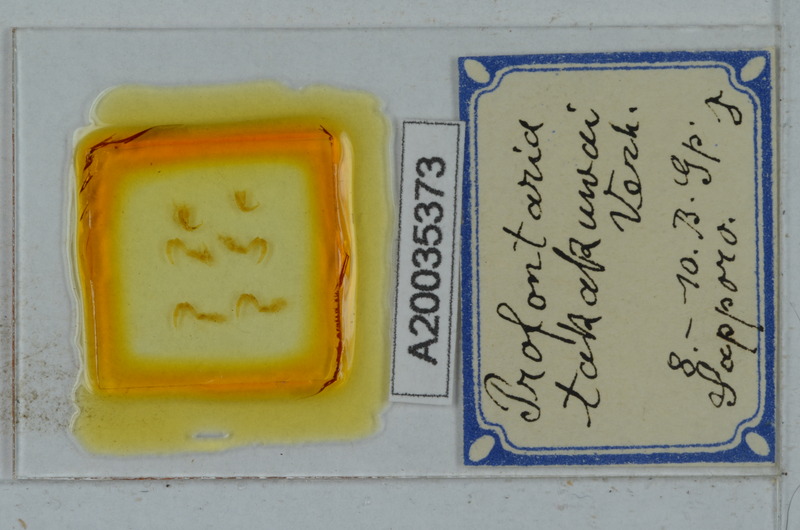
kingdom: Animalia
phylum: Arthropoda
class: Diplopoda
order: Polydesmida
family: Xystodesmidae
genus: Parafontaria
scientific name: Parafontaria takakuwai
